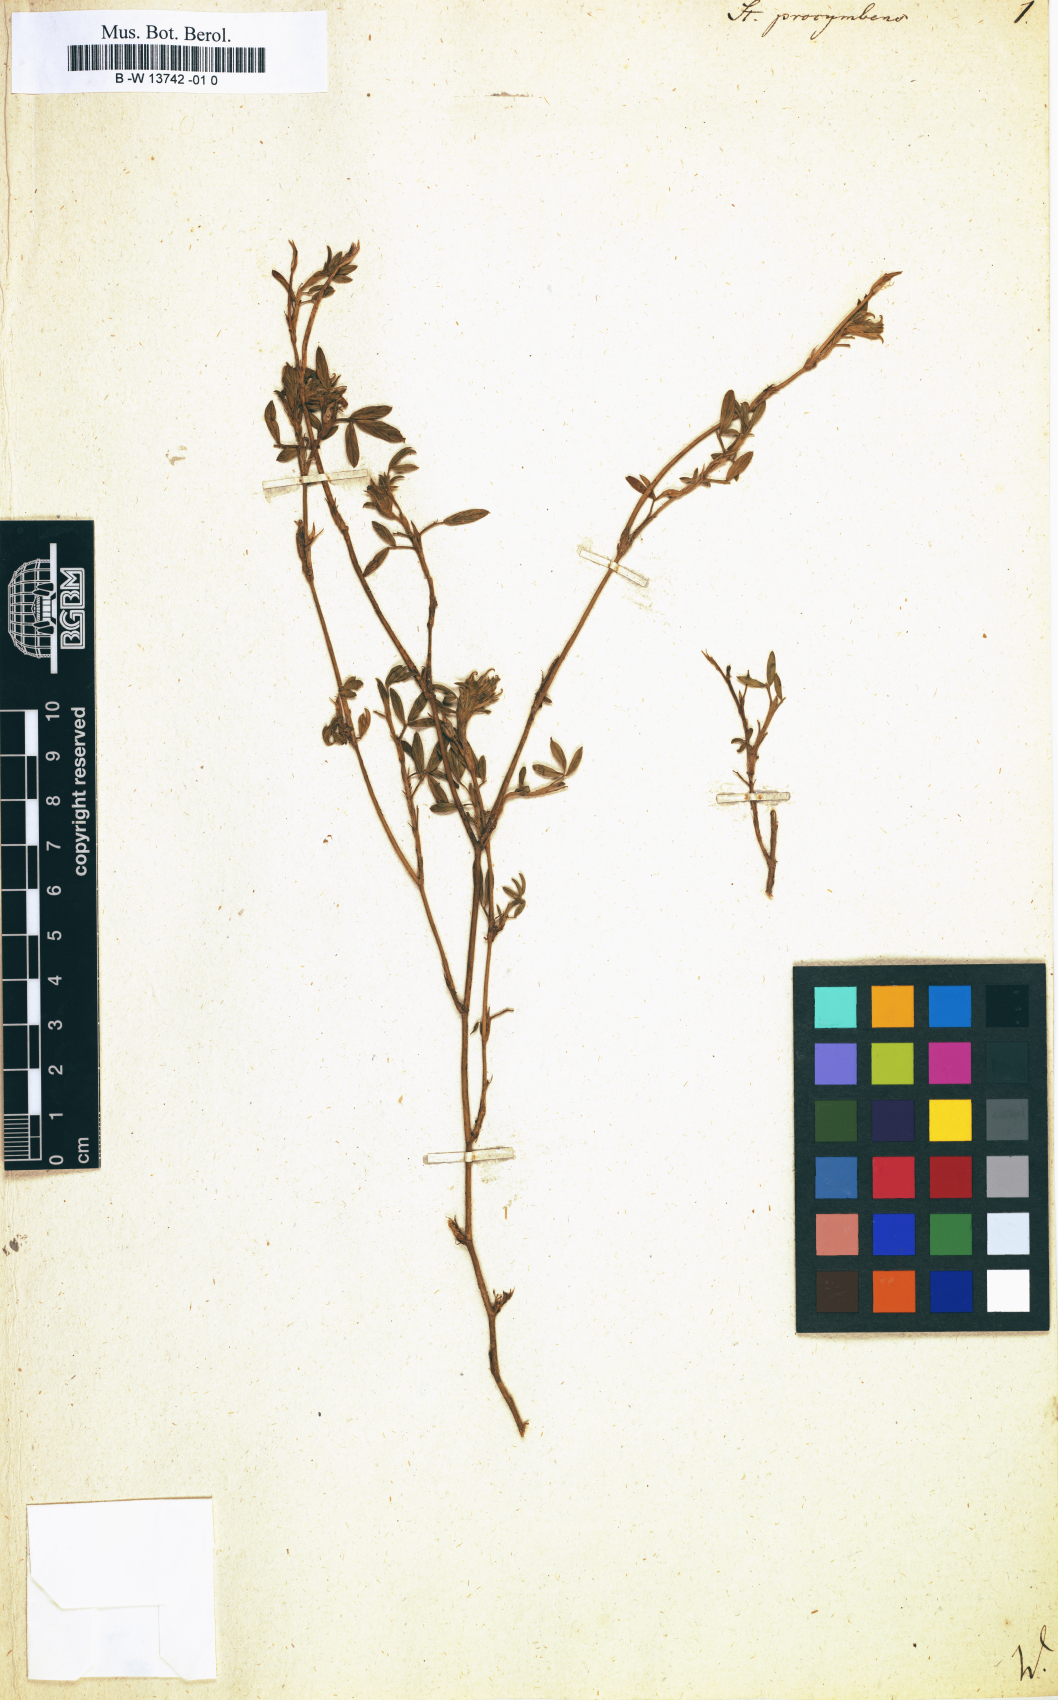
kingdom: Plantae
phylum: Tracheophyta
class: Magnoliopsida
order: Fabales
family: Fabaceae
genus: Stylosanthes
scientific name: Stylosanthes hamata
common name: Cheesytoes
